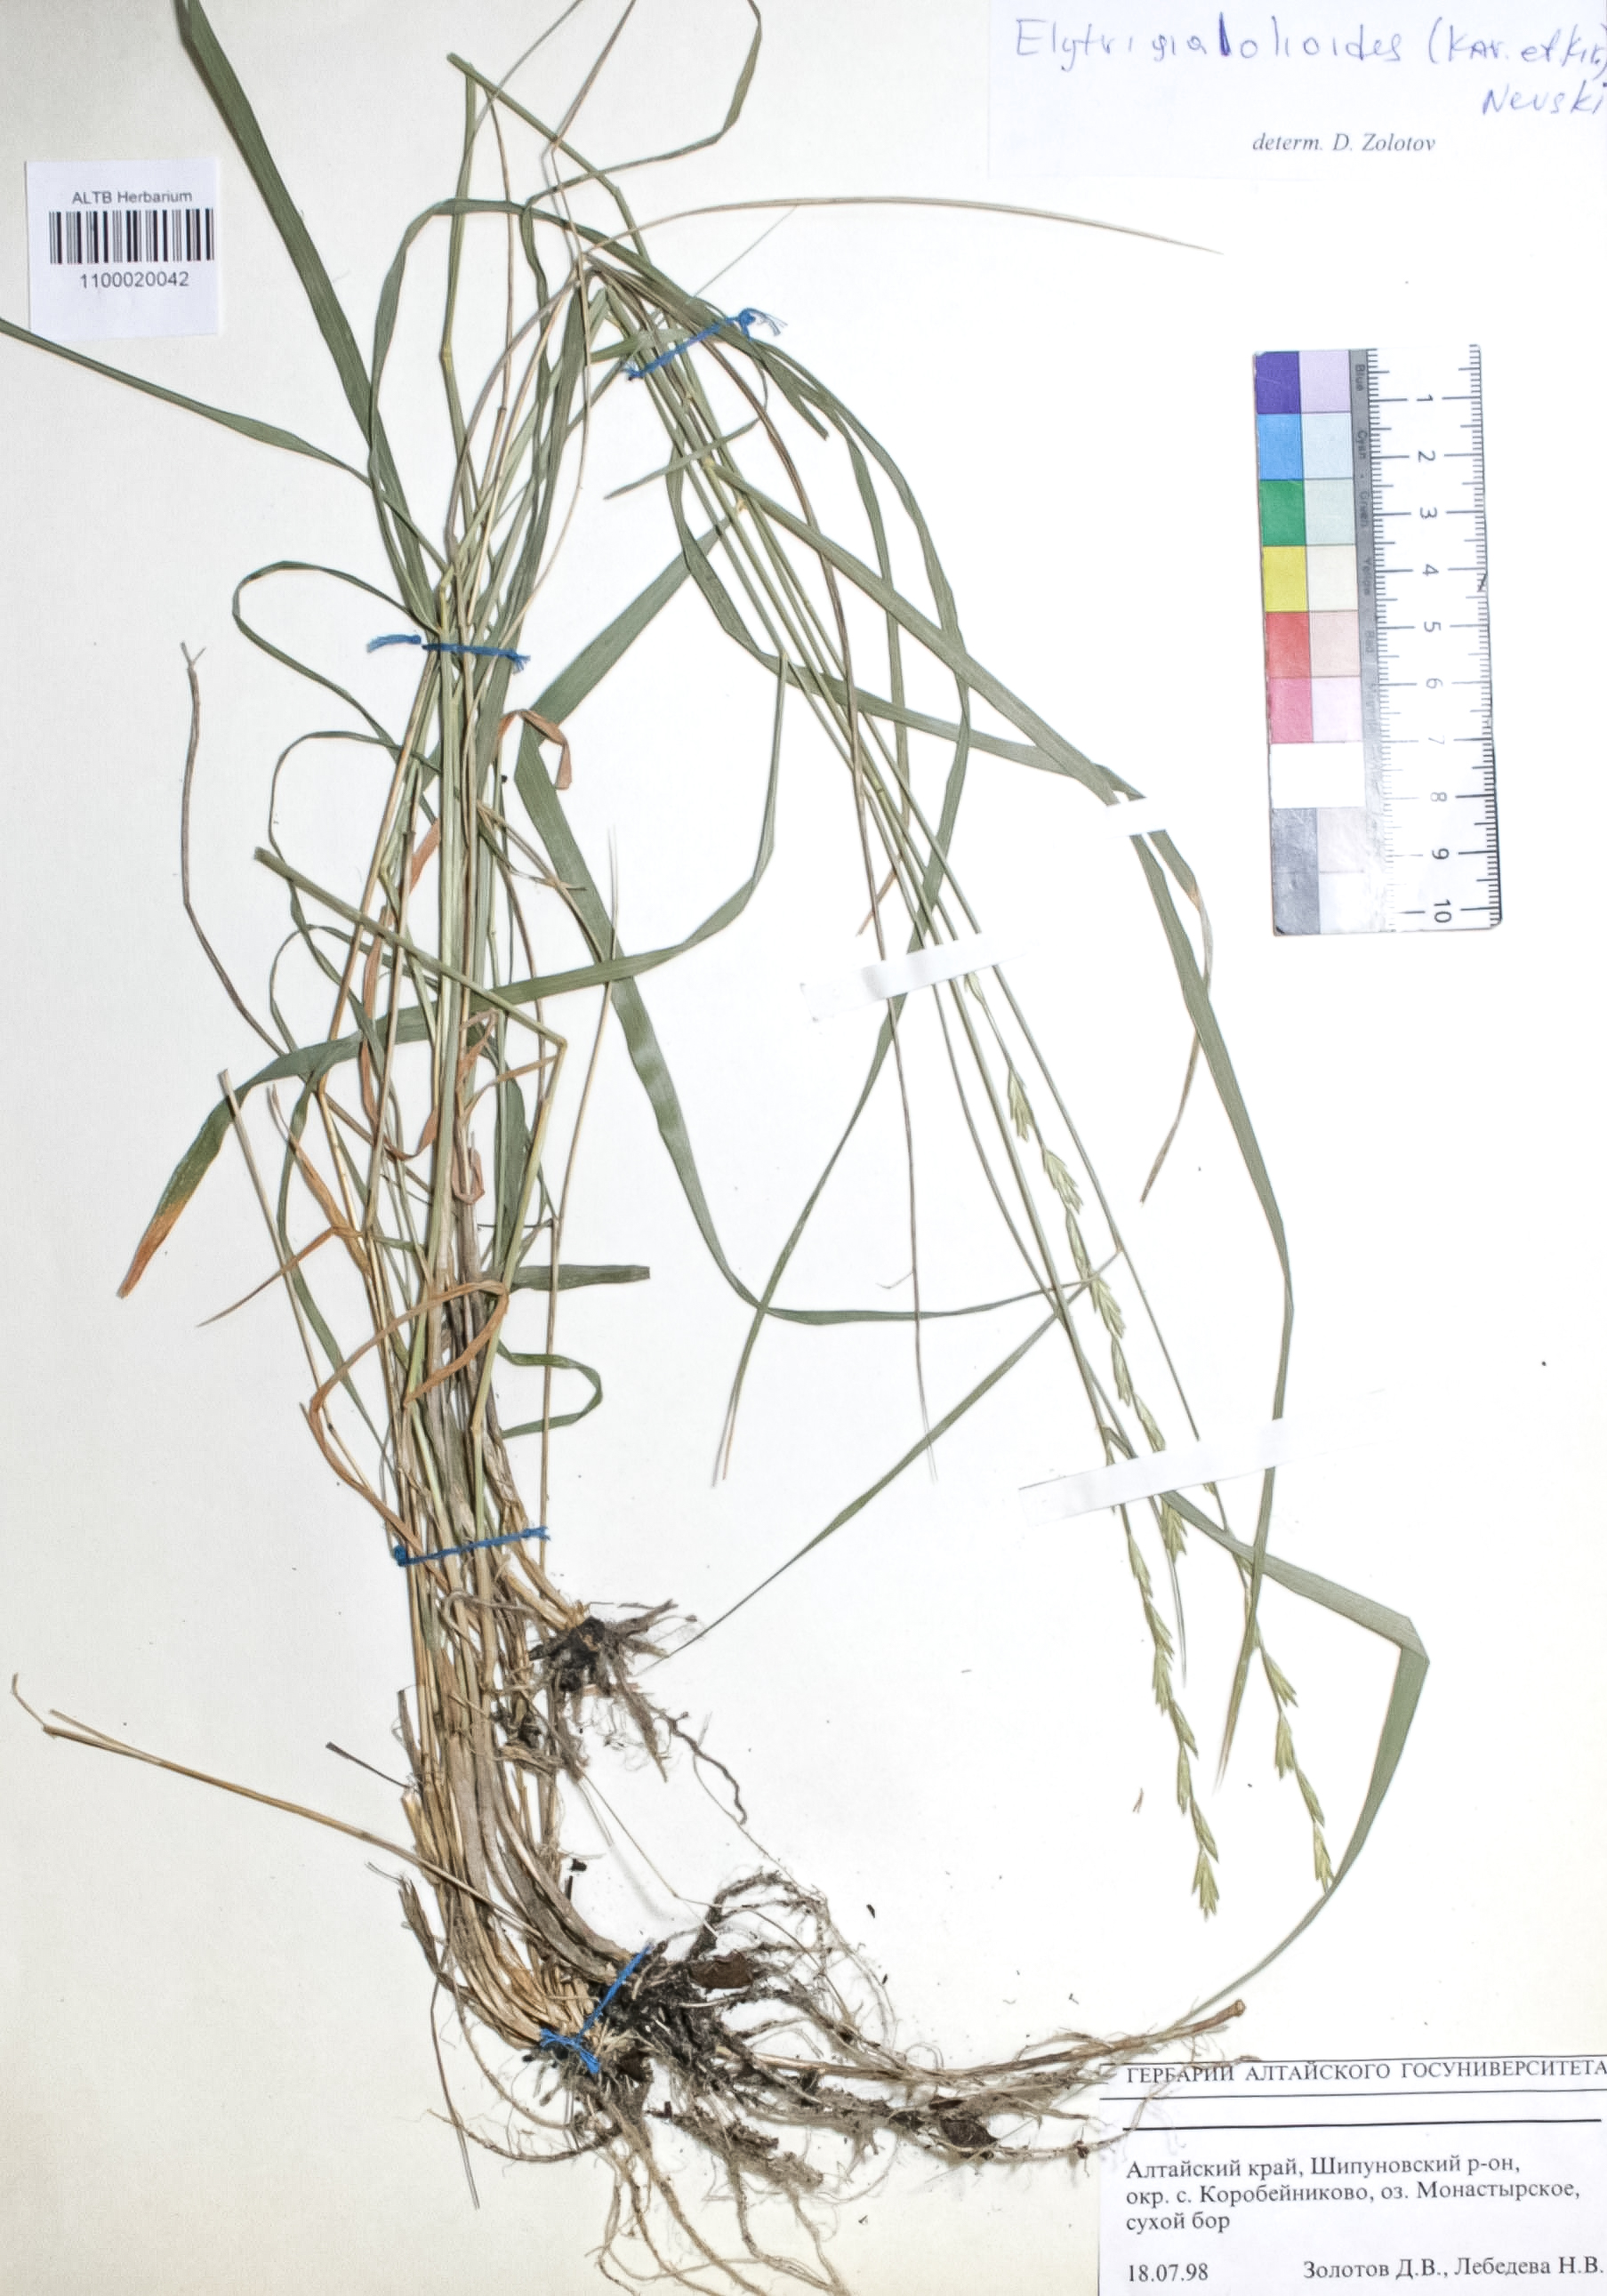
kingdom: Plantae
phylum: Tracheophyta
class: Liliopsida
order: Poales
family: Poaceae
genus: Elymus
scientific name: Elymus lolioides
